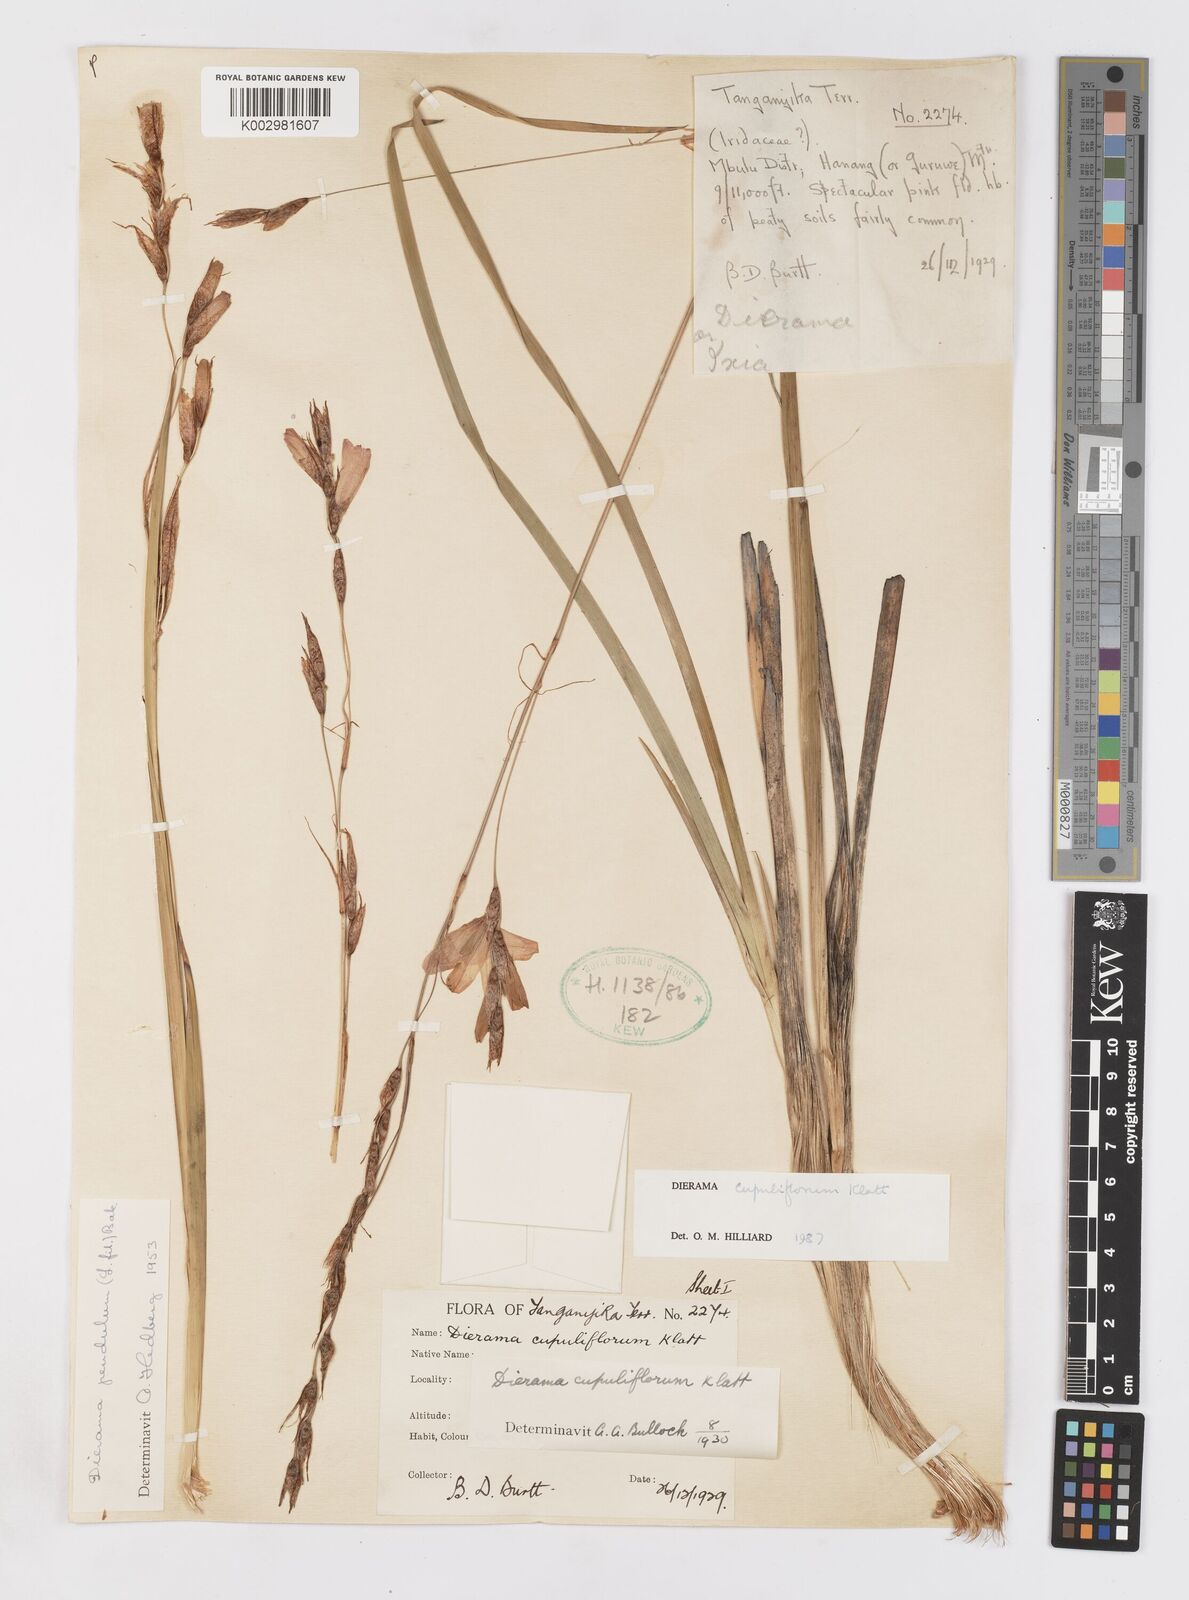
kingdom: Plantae
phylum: Tracheophyta
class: Liliopsida
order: Asparagales
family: Iridaceae
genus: Dierama
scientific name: Dierama cupuliflorum
